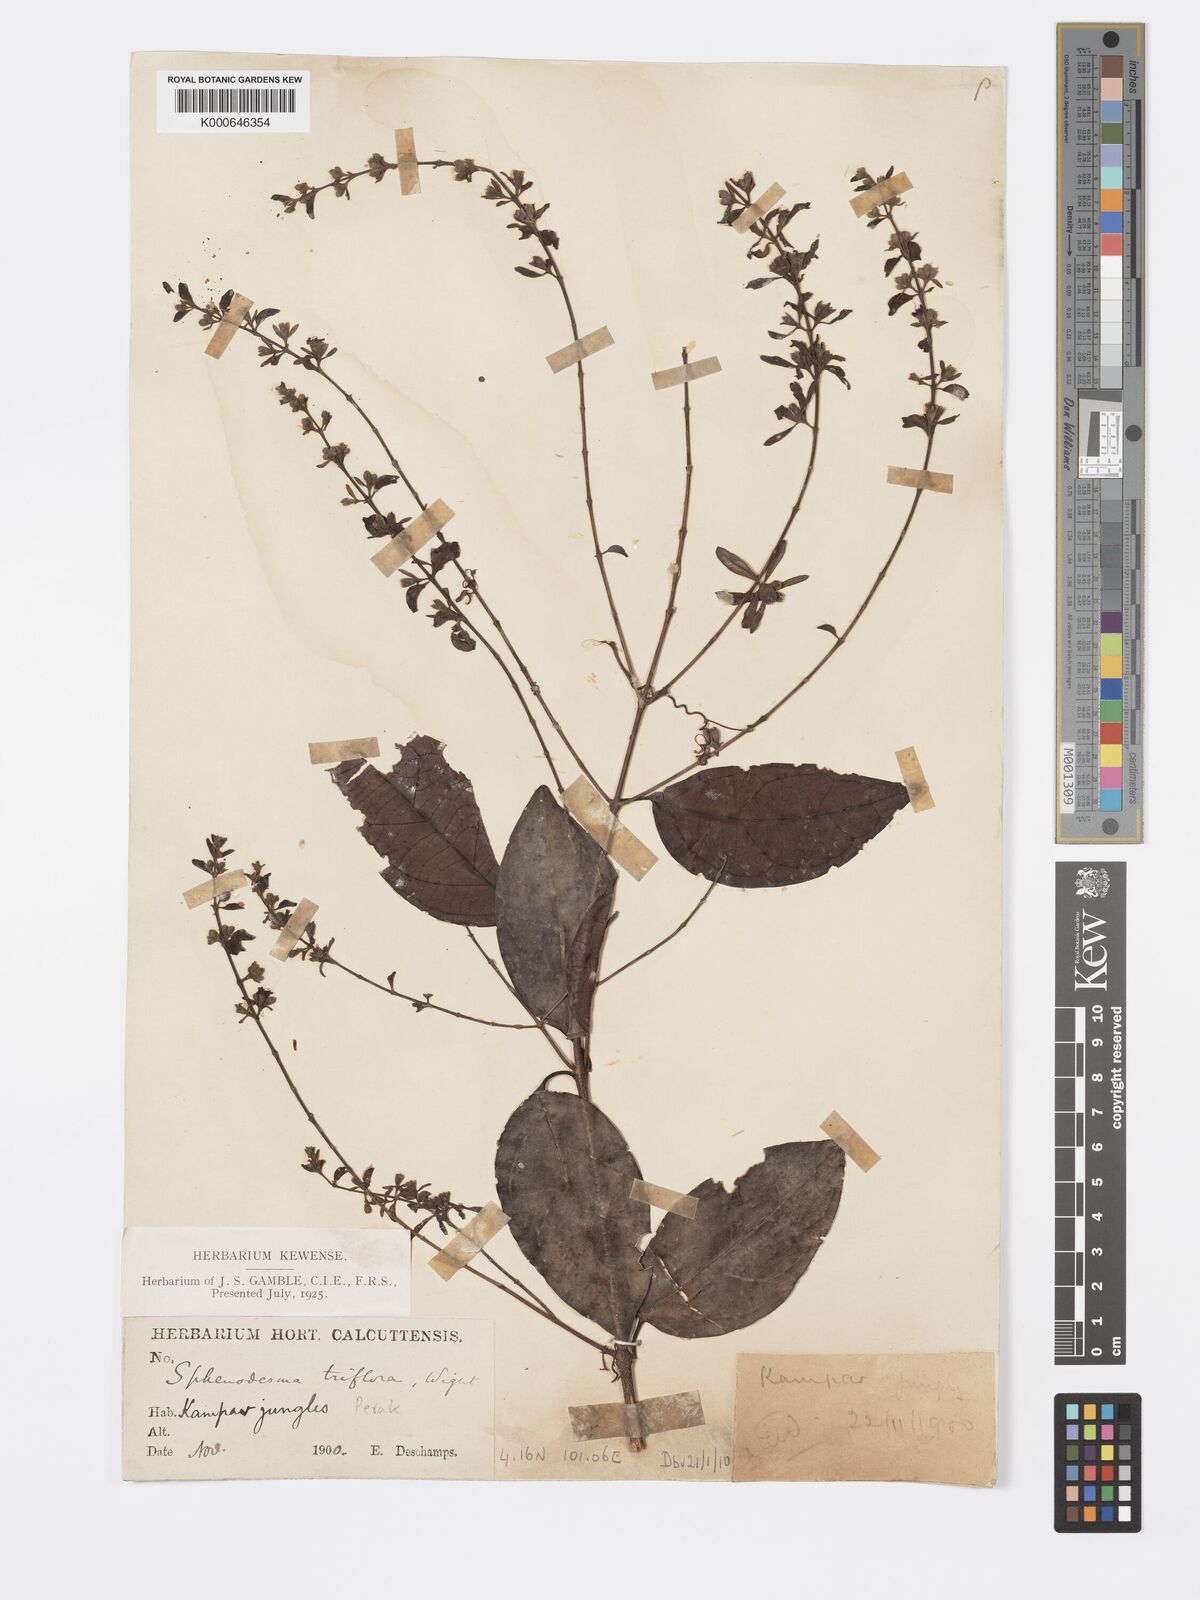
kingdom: Plantae
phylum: Tracheophyta
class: Magnoliopsida
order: Lamiales
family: Lamiaceae
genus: Sphenodesme
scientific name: Sphenodesme
